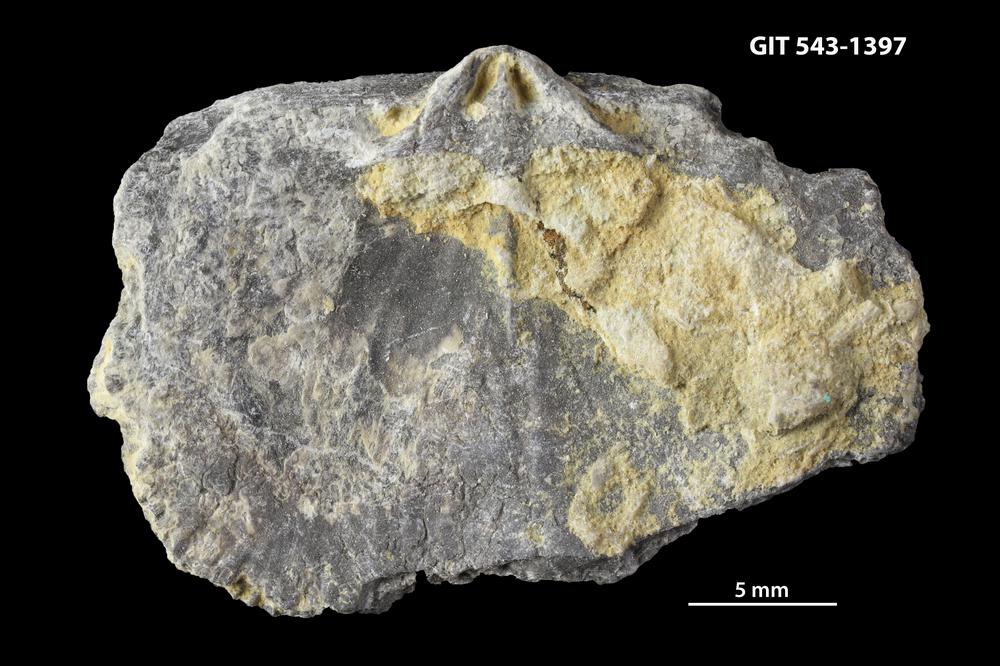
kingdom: Animalia
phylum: Brachiopoda
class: Rhynchonellata
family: Clitambonitidae
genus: Clitambonites
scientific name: Clitambonites Orthisina schmidti
